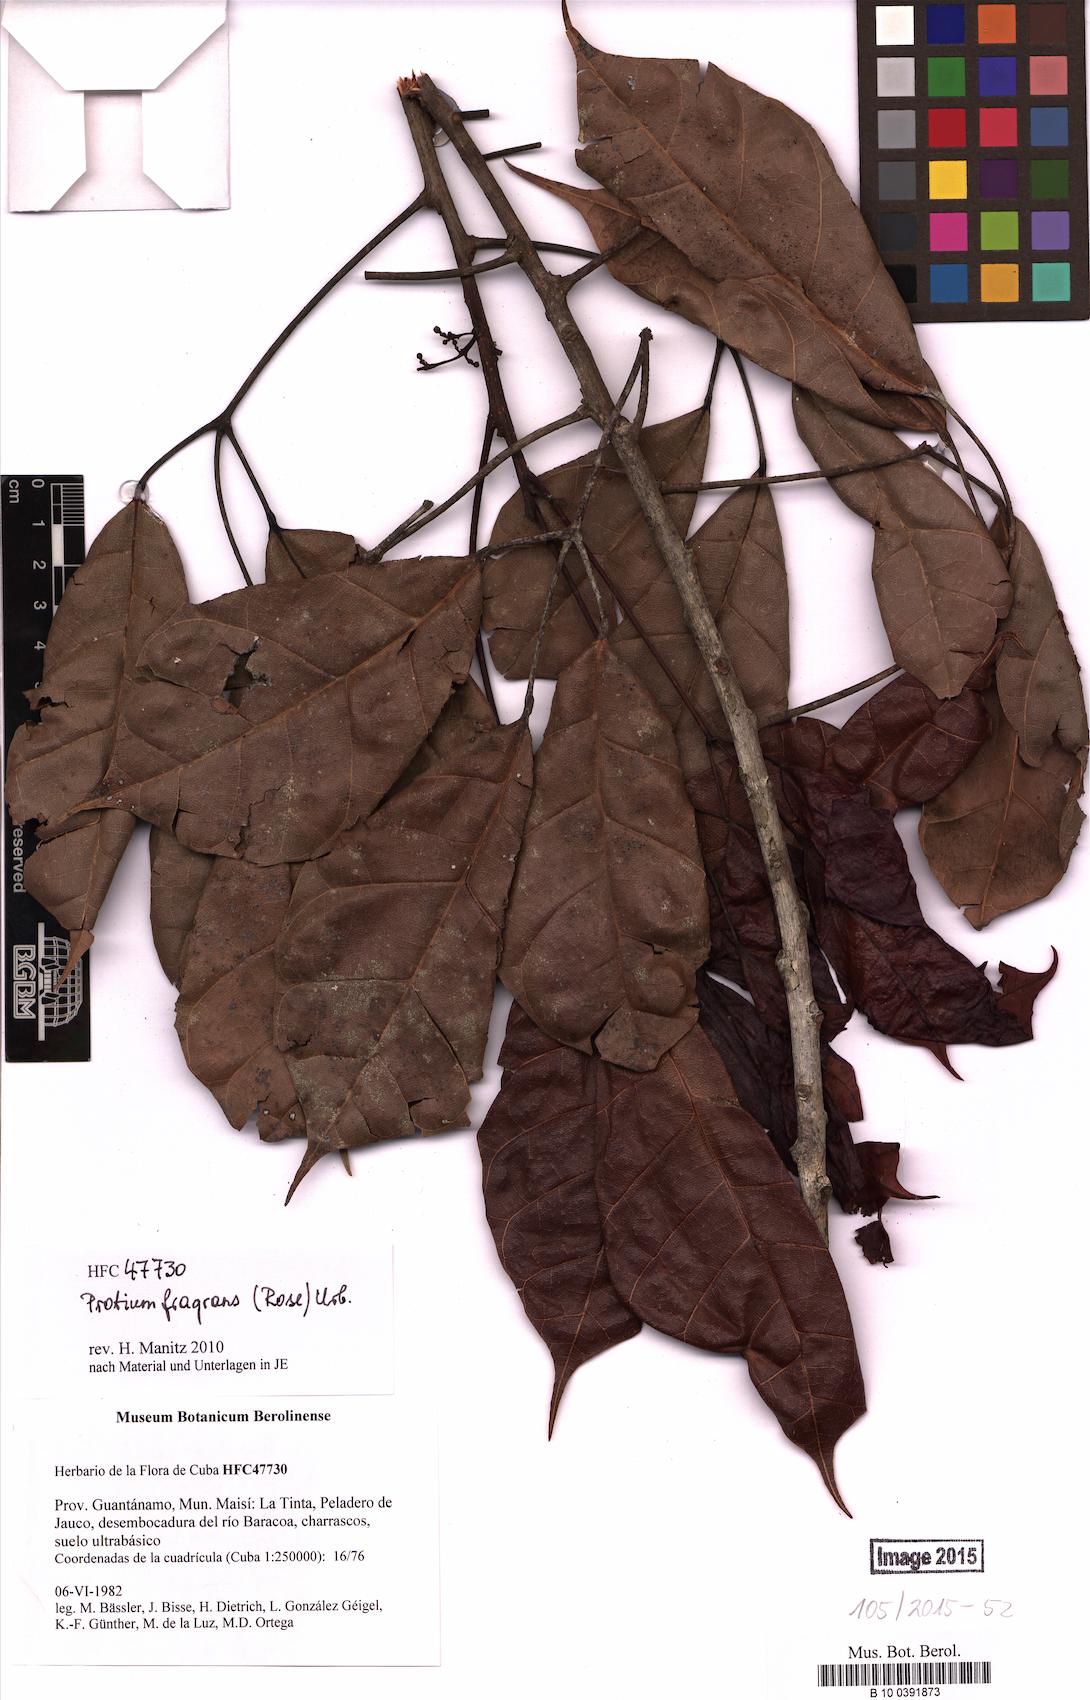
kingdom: Plantae
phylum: Tracheophyta
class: Magnoliopsida
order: Sapindales
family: Burseraceae
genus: Protium
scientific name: Protium fragrans
